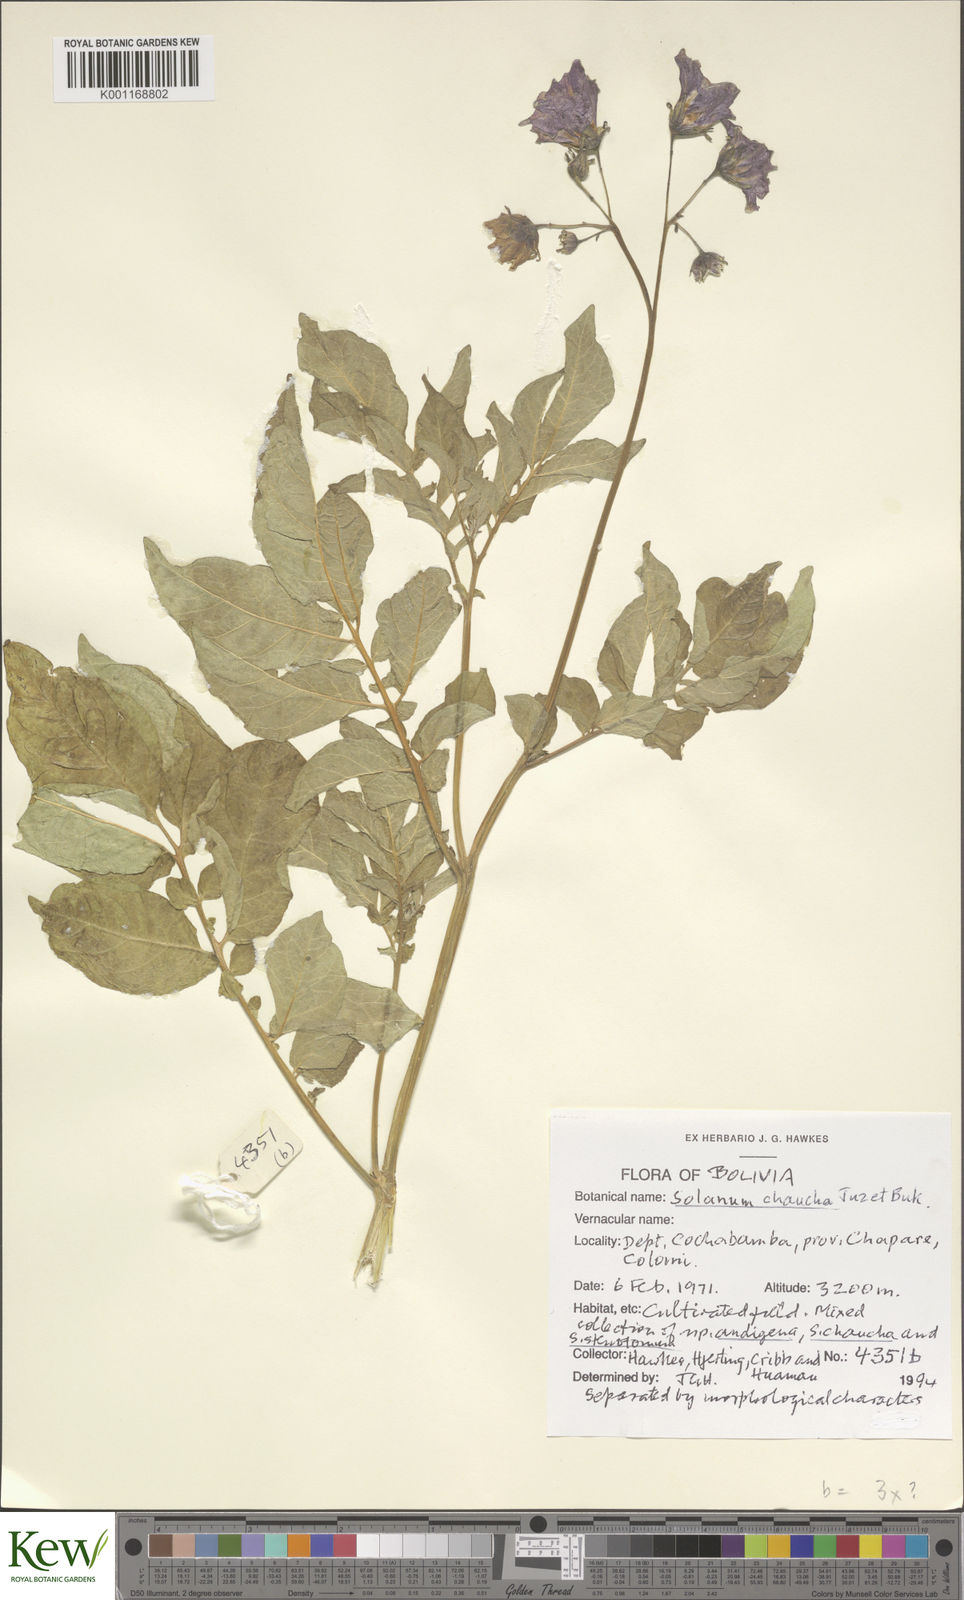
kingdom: Plantae
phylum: Tracheophyta
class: Magnoliopsida
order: Solanales
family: Solanaceae
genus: Solanum
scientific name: Solanum chaucha
